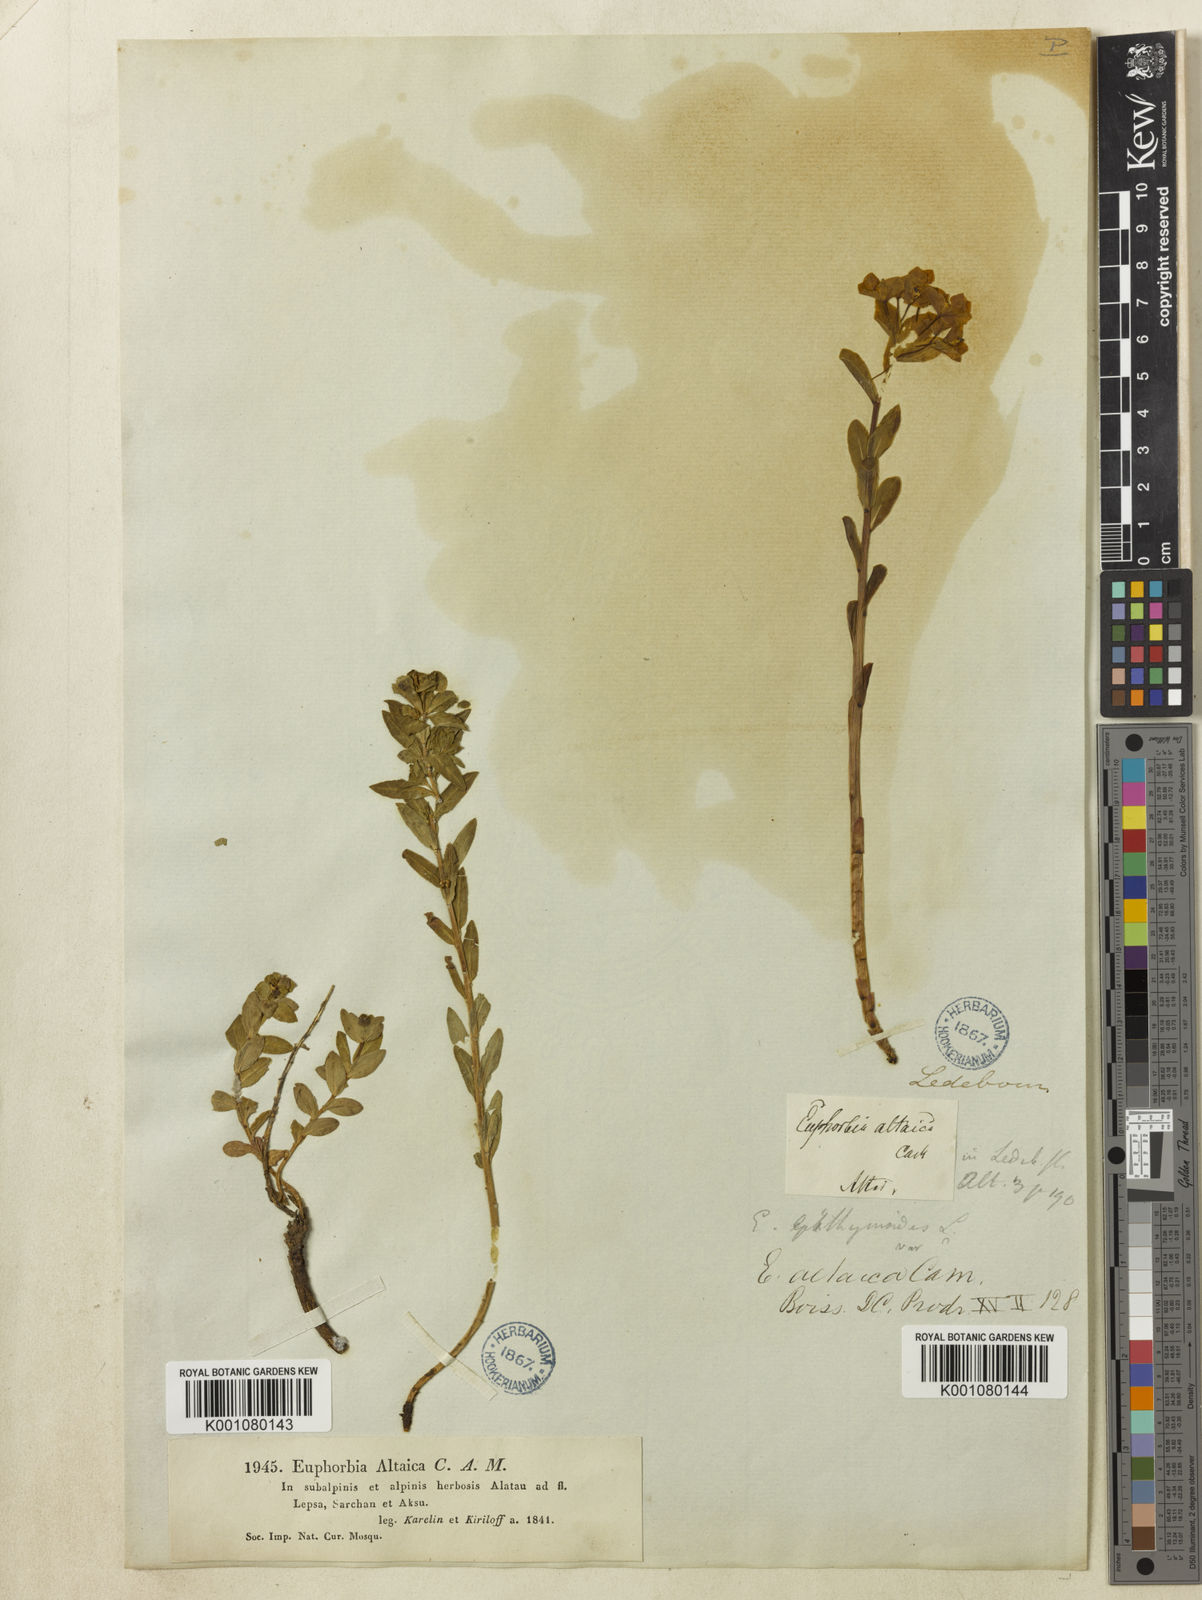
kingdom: Plantae
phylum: Tracheophyta
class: Magnoliopsida
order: Malpighiales
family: Euphorbiaceae
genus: Euphorbia
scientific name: Euphorbia alatavica
